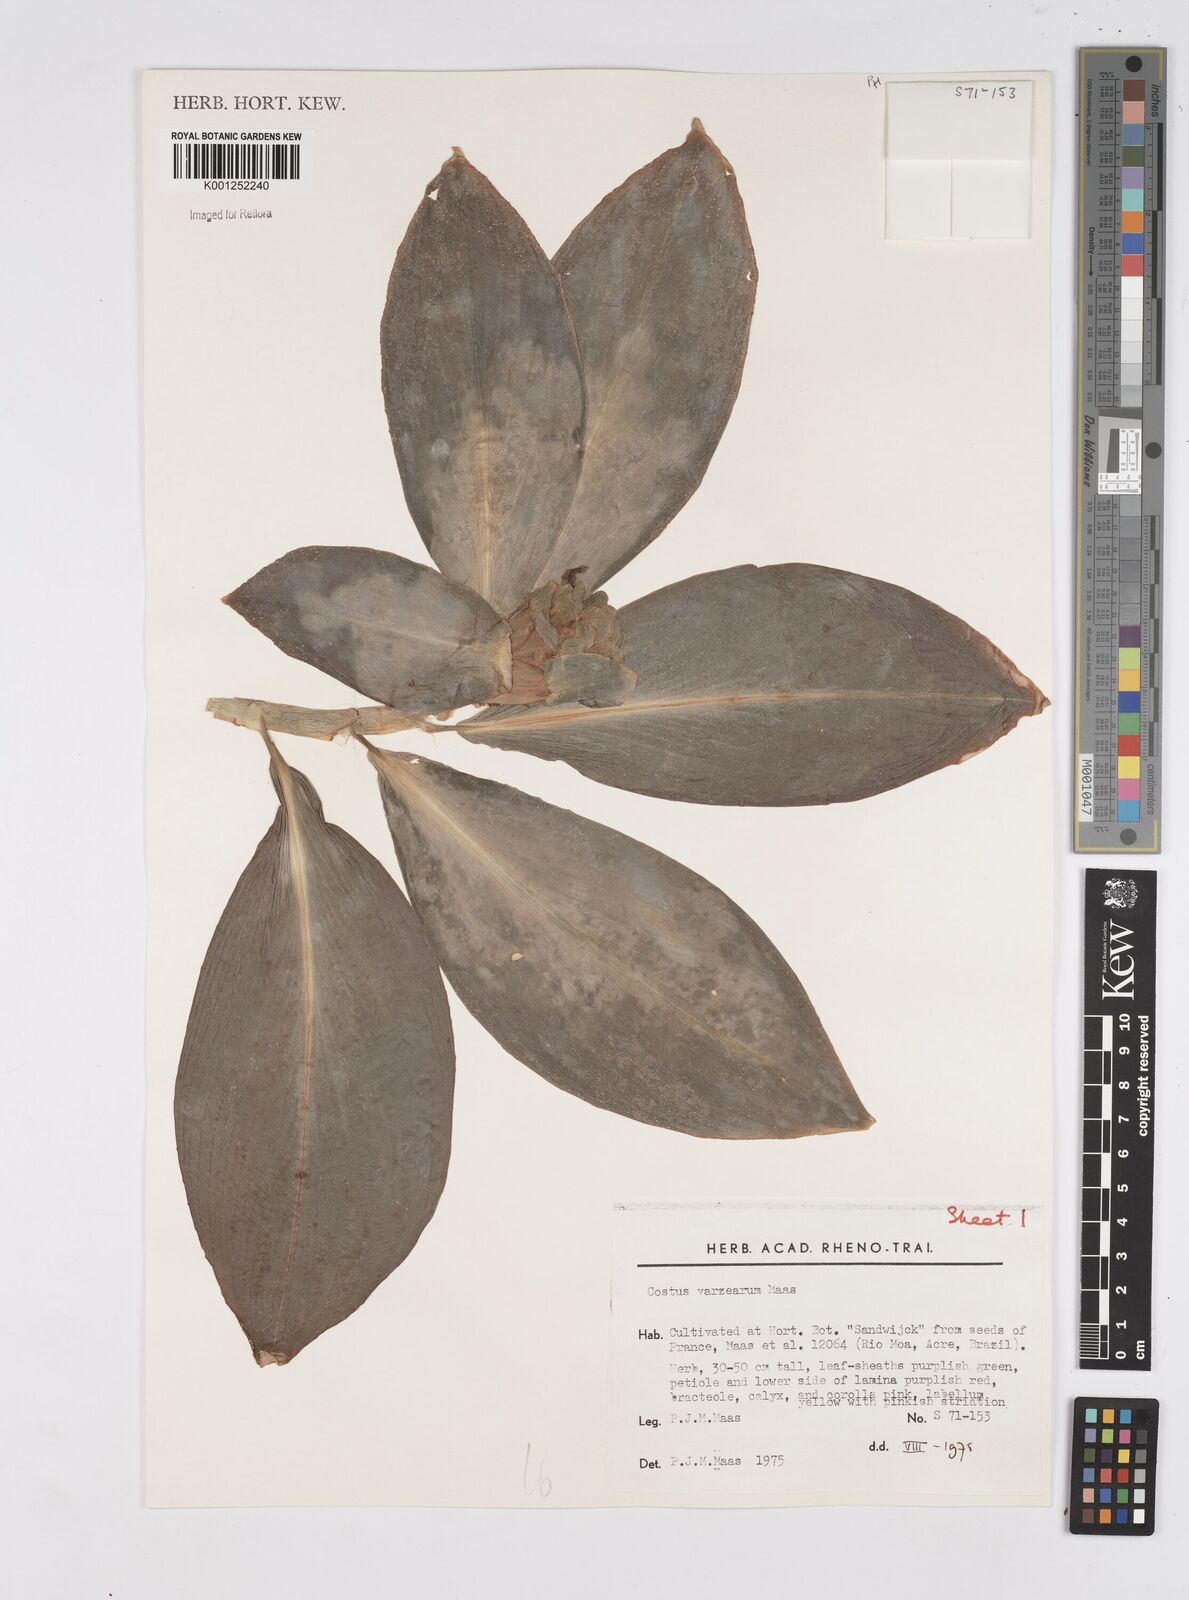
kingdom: Plantae
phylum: Tracheophyta
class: Liliopsida
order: Zingiberales
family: Costaceae
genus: Costus
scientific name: Costus varzearum
